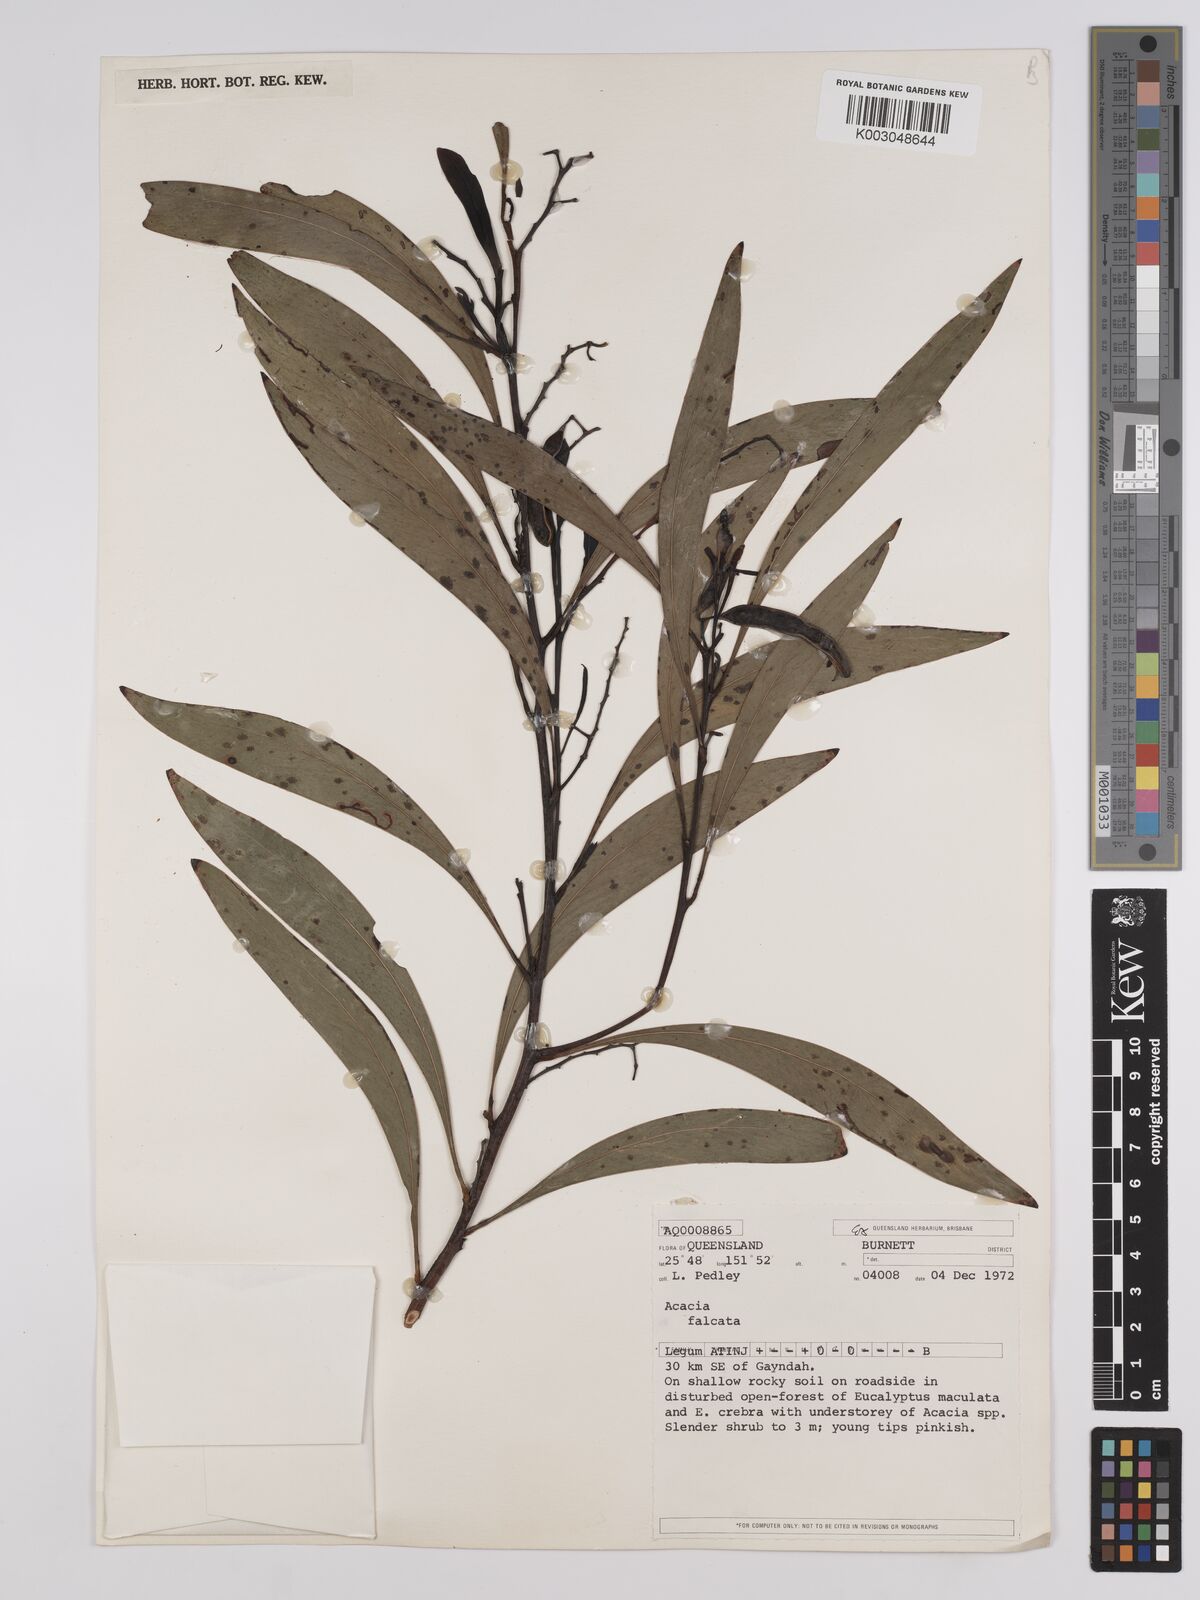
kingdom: Plantae
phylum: Tracheophyta
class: Magnoliopsida
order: Fabales
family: Fabaceae
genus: Acacia
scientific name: Acacia falcata
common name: Burra acacia
